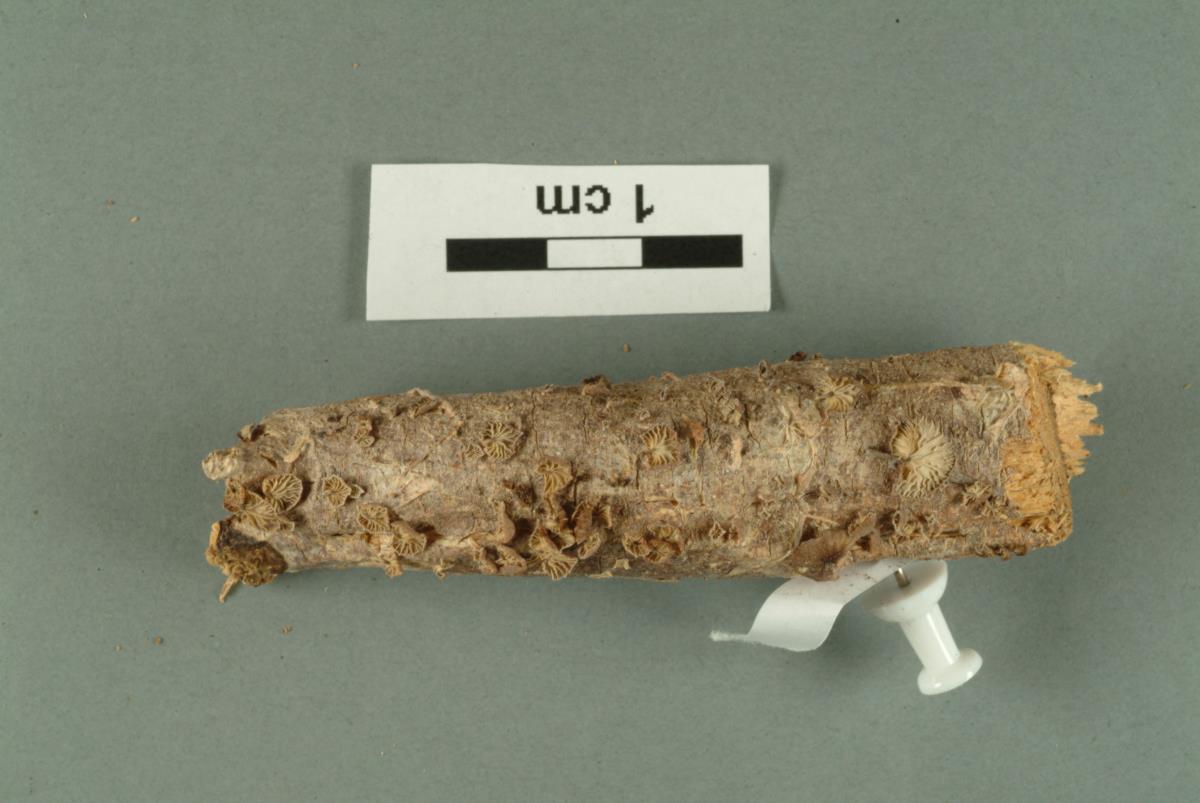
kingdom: Fungi
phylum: Basidiomycota
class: Agaricomycetes
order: Agaricales
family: Mycenaceae
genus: Mycena
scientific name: Mycena
